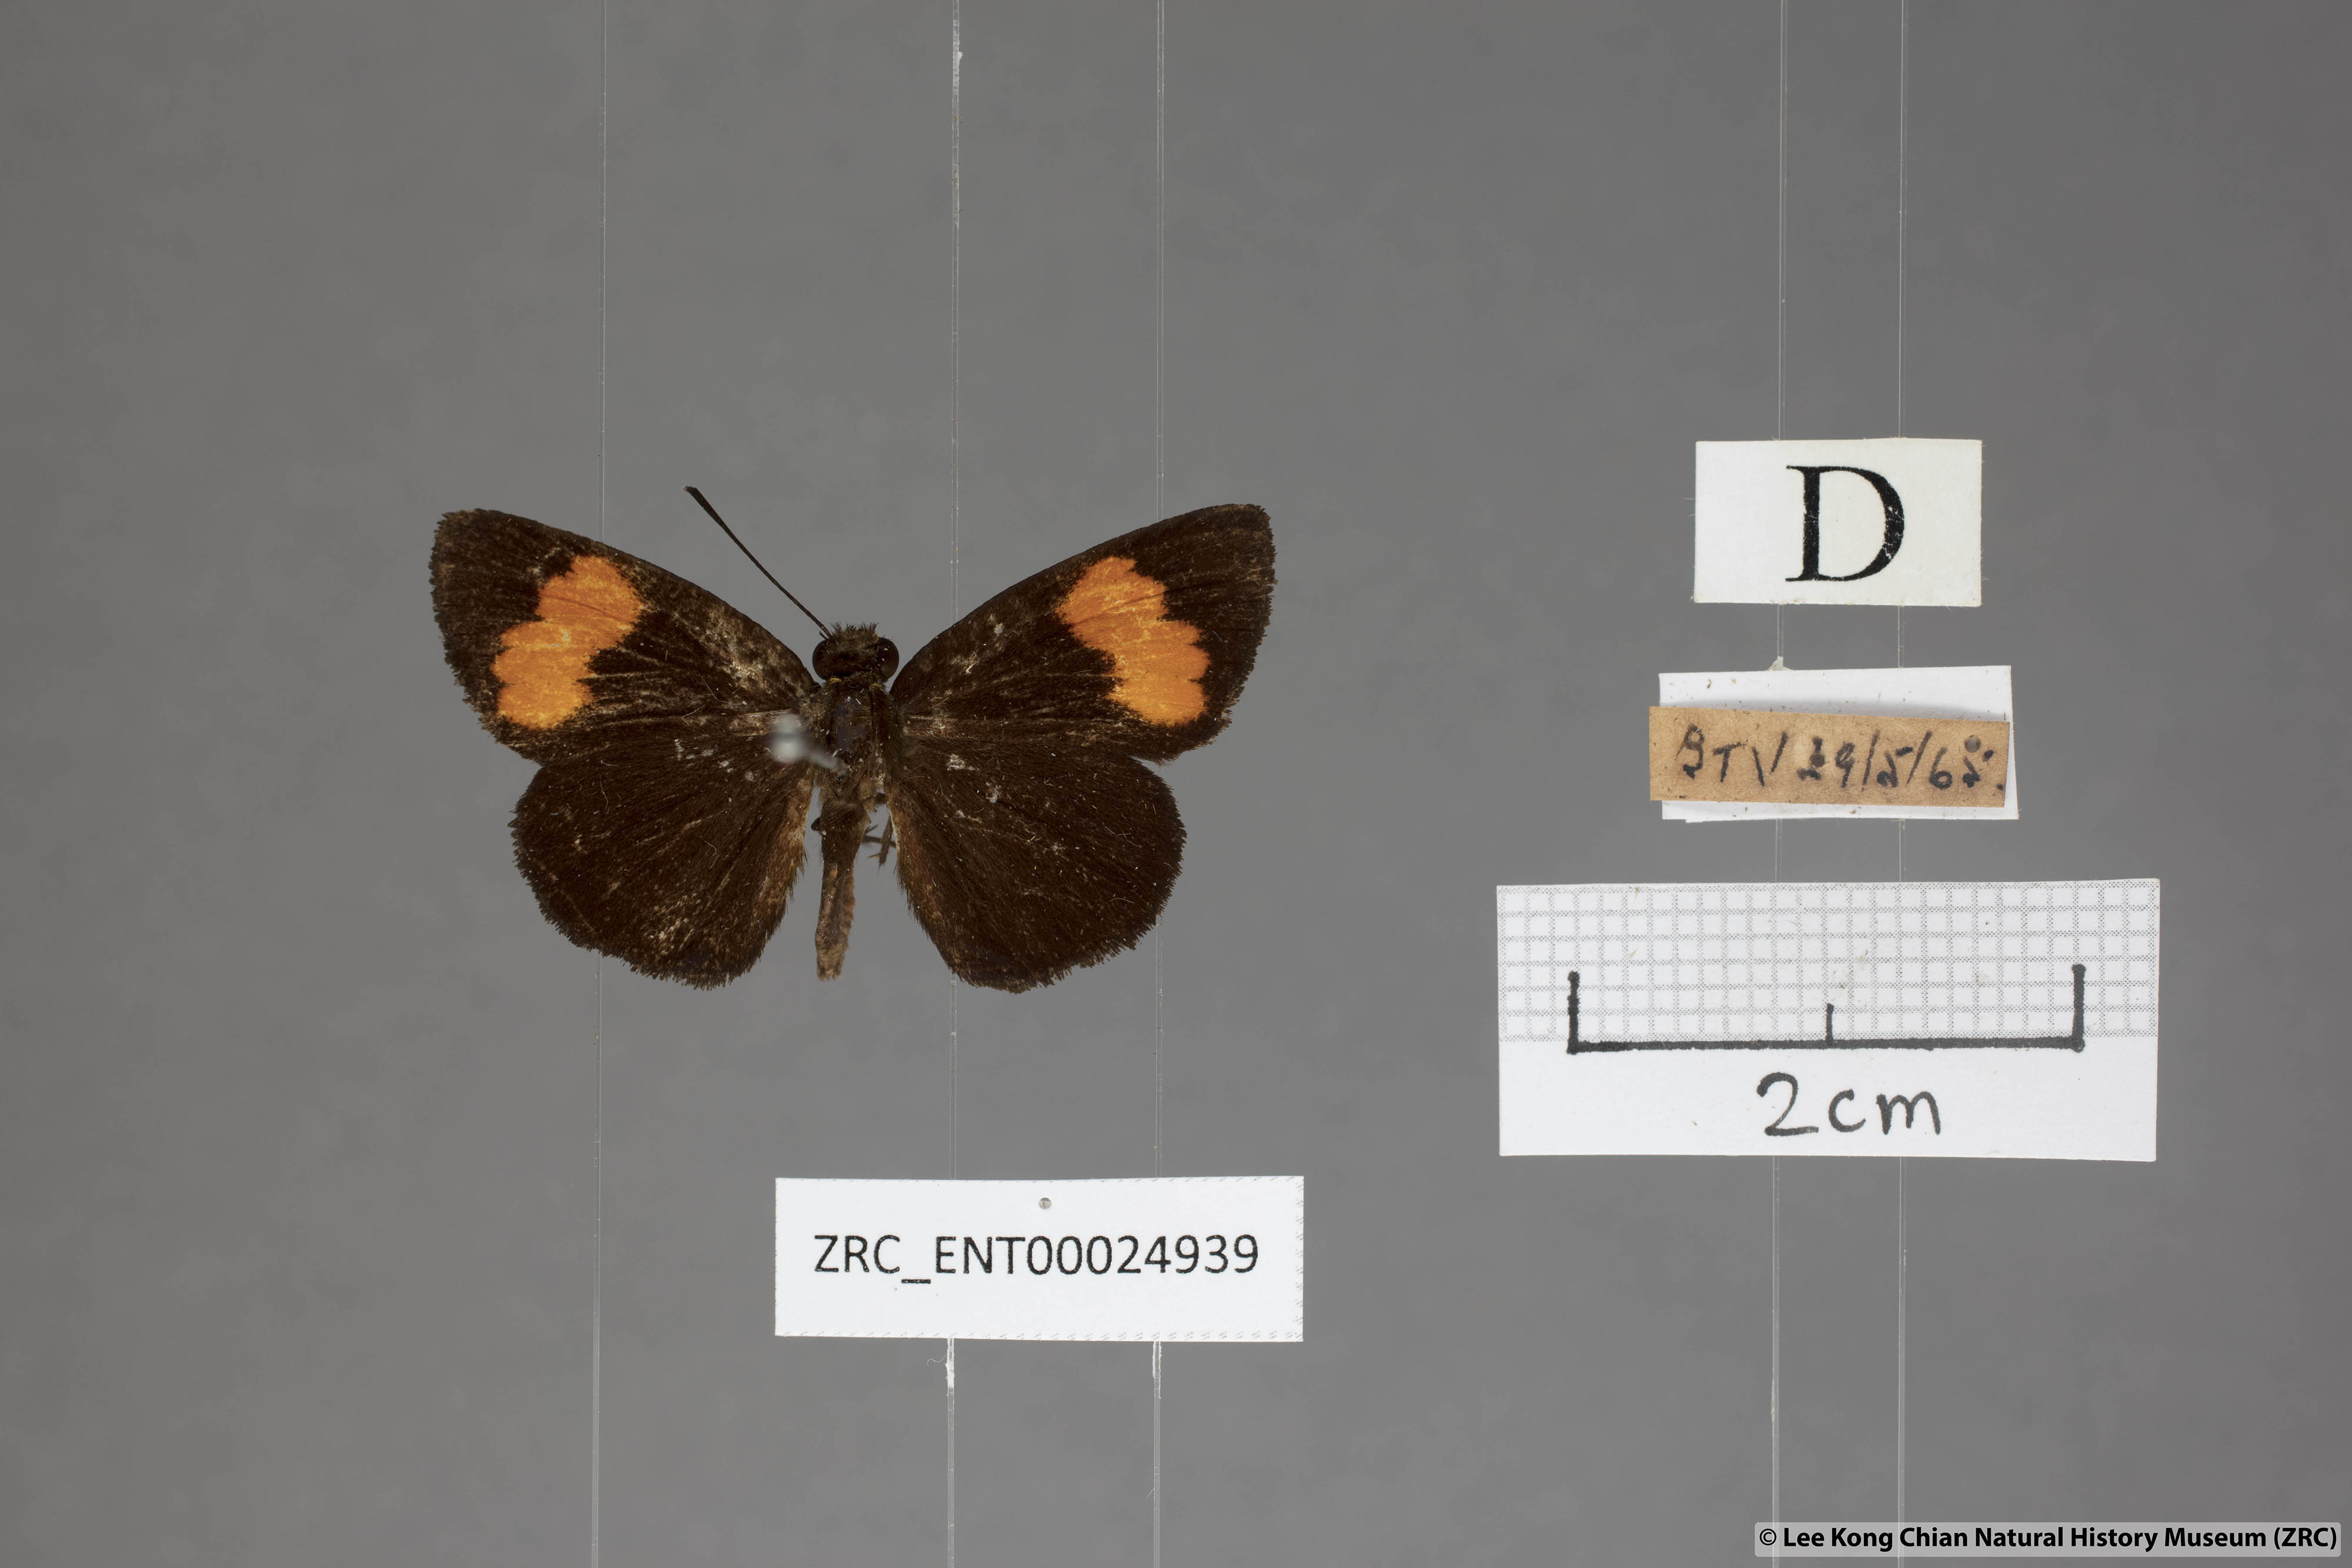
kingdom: Animalia
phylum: Arthropoda
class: Insecta
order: Lepidoptera
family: Hesperiidae
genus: Koruthaialos
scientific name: Koruthaialos sindu
